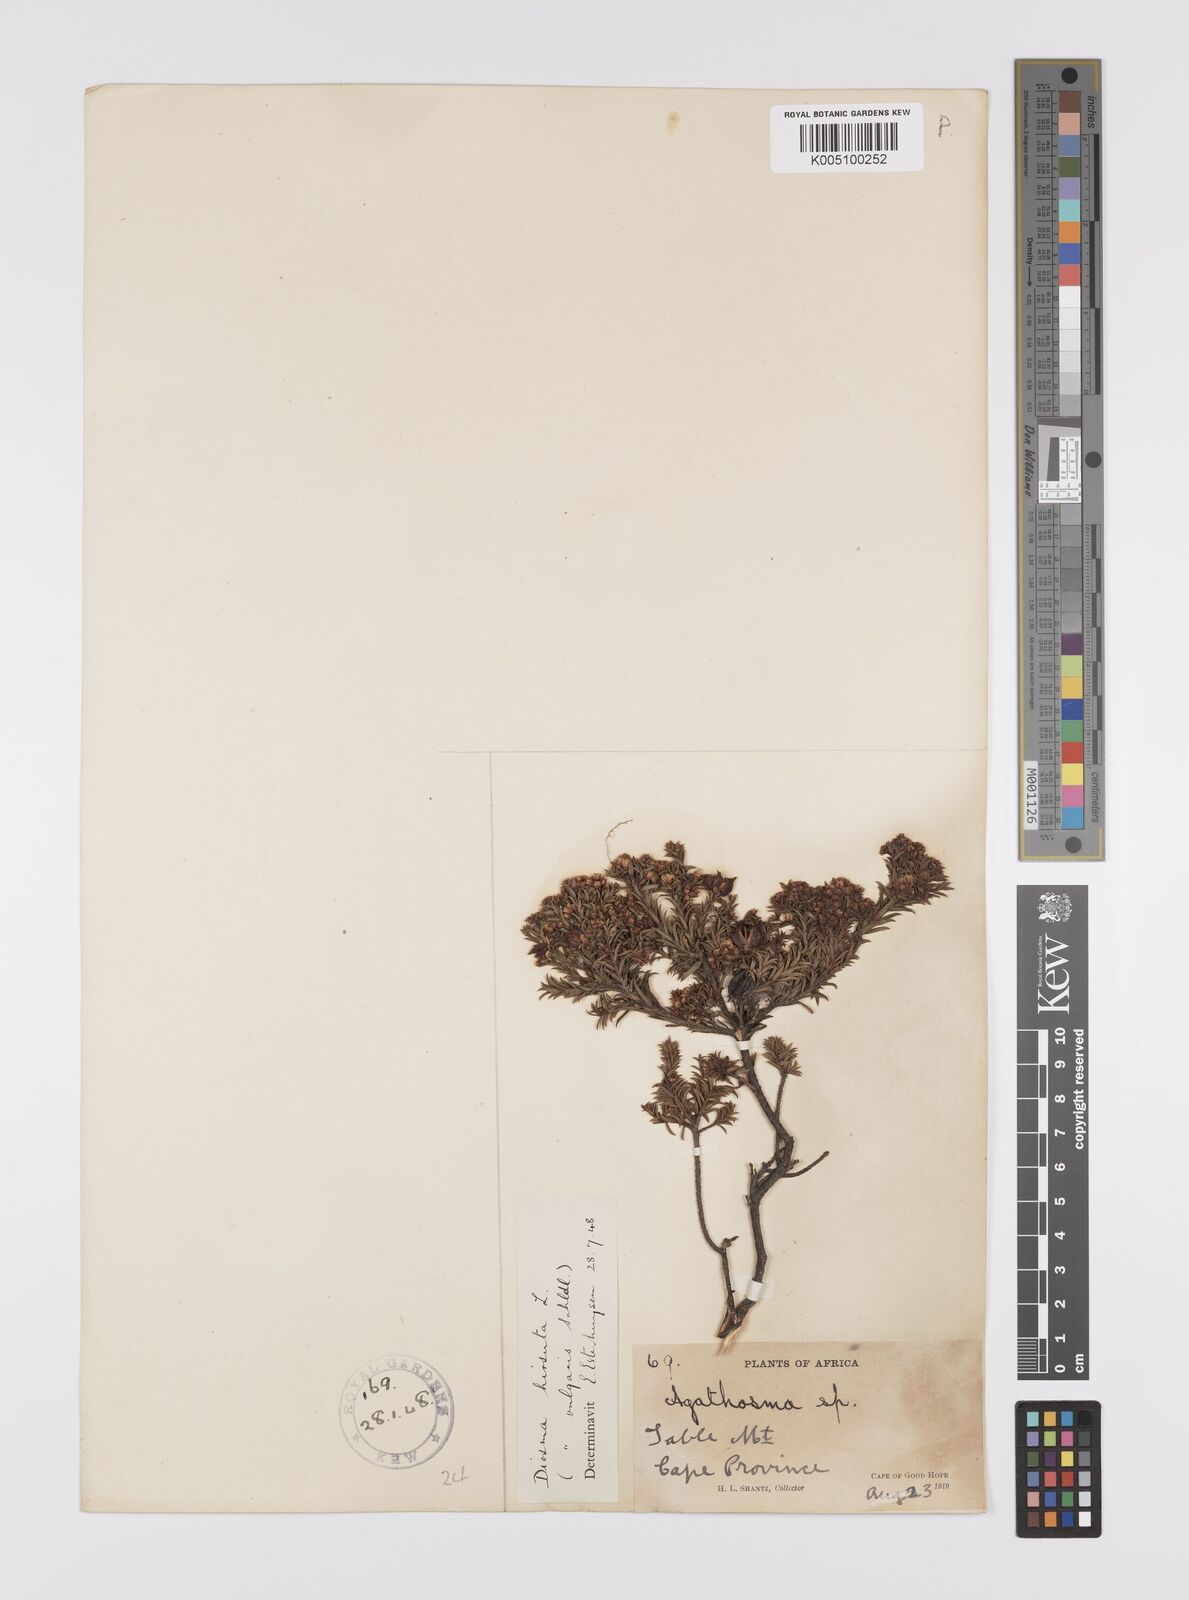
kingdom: Plantae
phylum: Tracheophyta
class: Magnoliopsida
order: Sapindales
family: Rutaceae
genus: Diosma
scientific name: Diosma hirsuta
